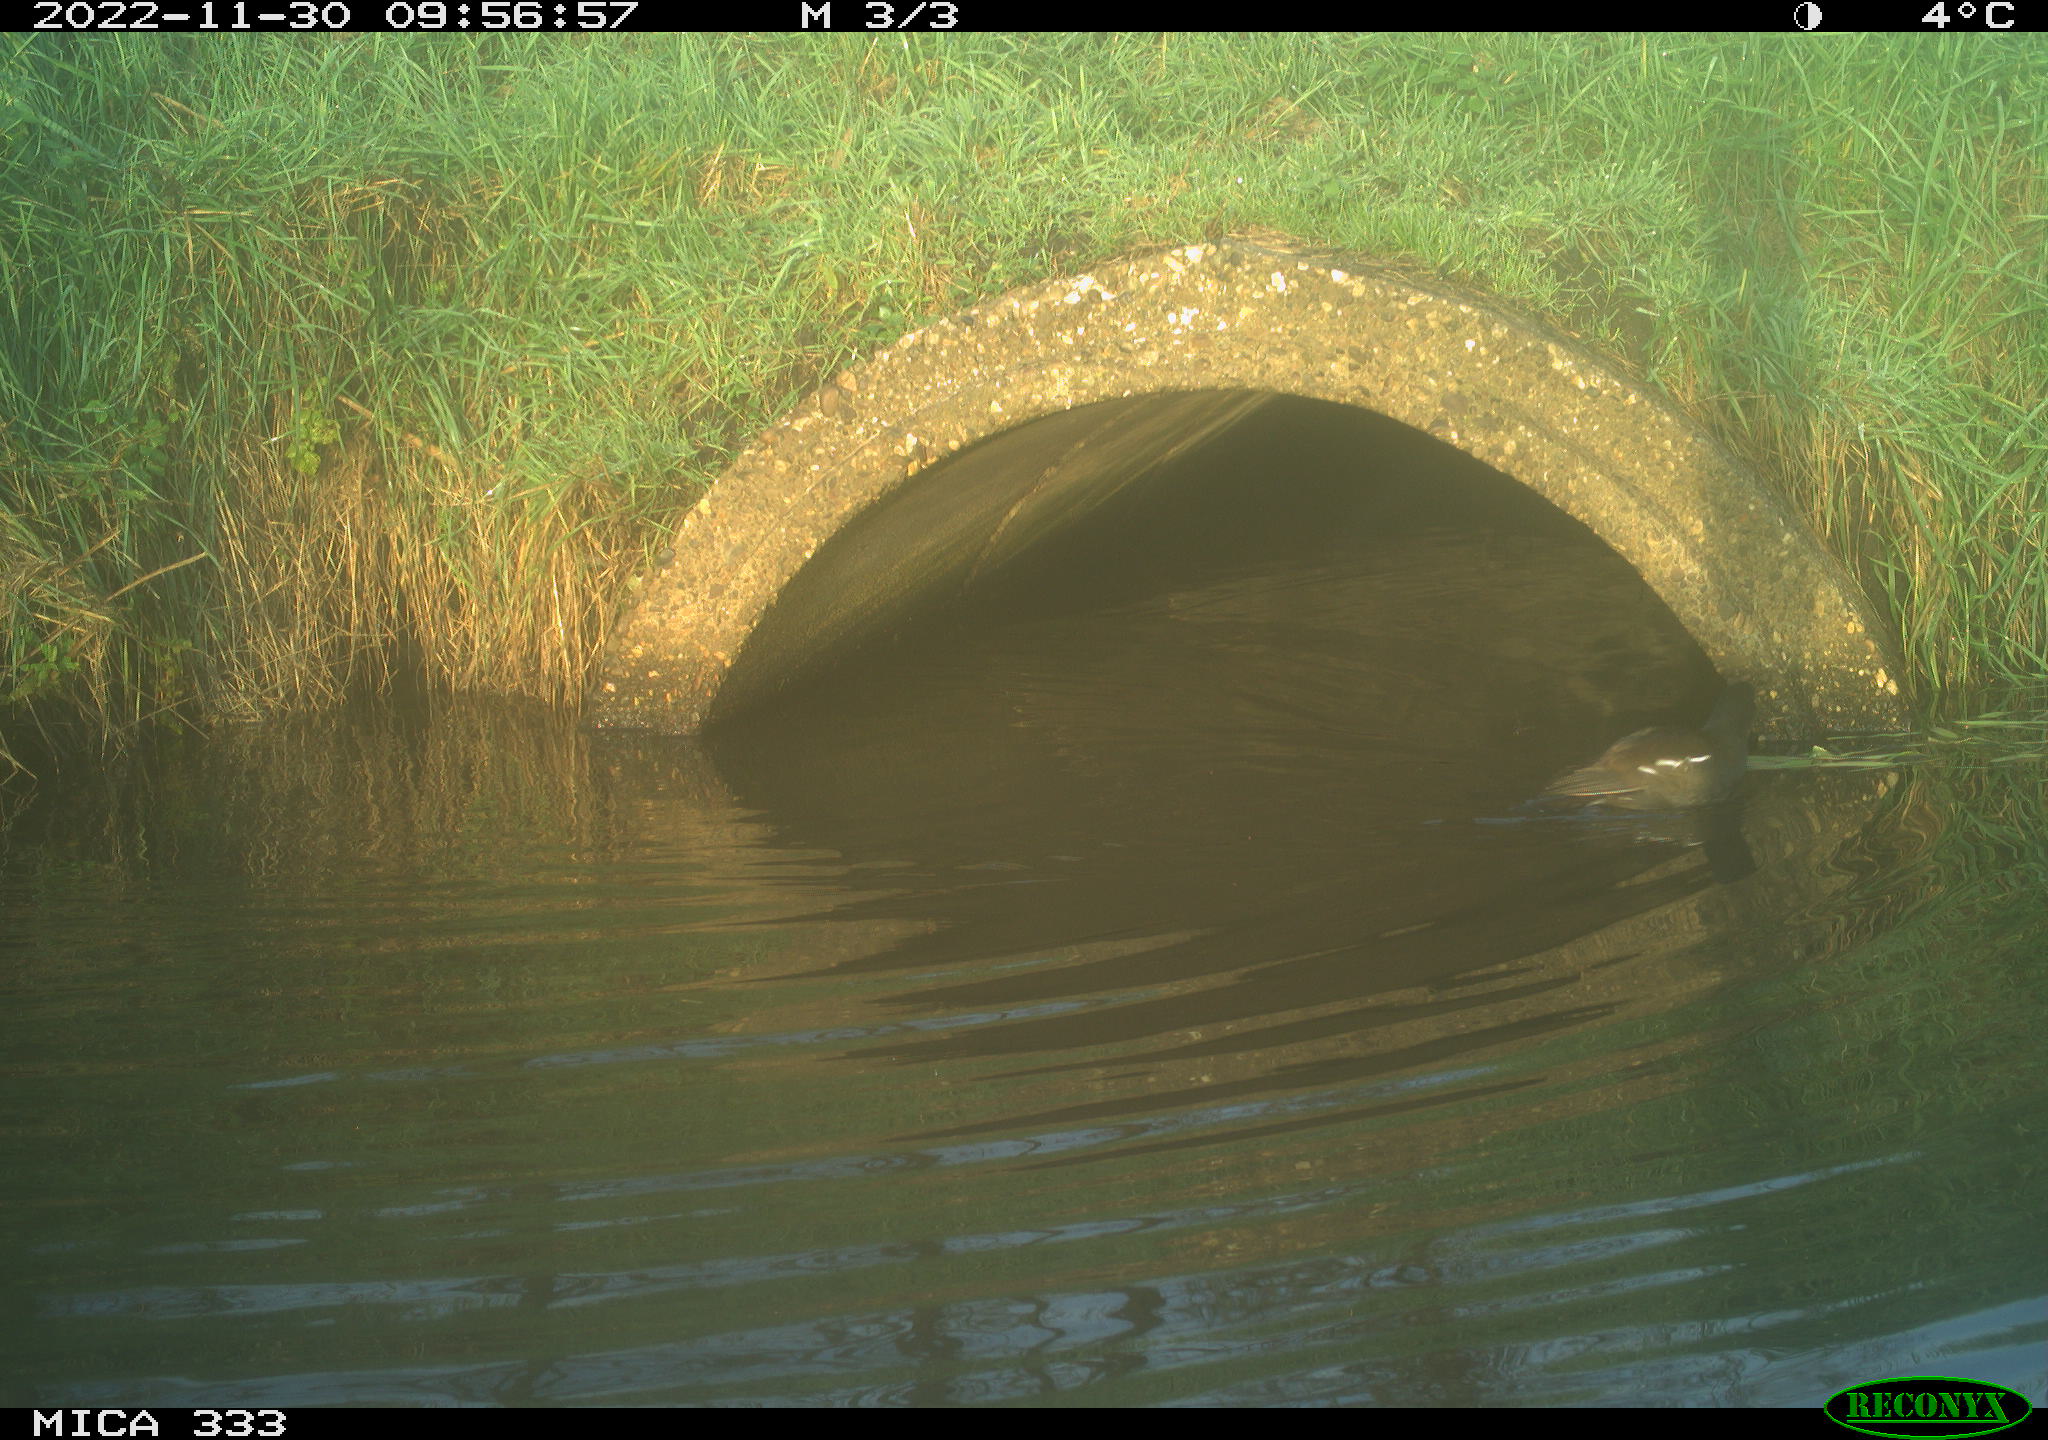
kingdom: Animalia
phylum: Chordata
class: Aves
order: Gruiformes
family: Rallidae
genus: Gallinula
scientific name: Gallinula chloropus
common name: Common moorhen
